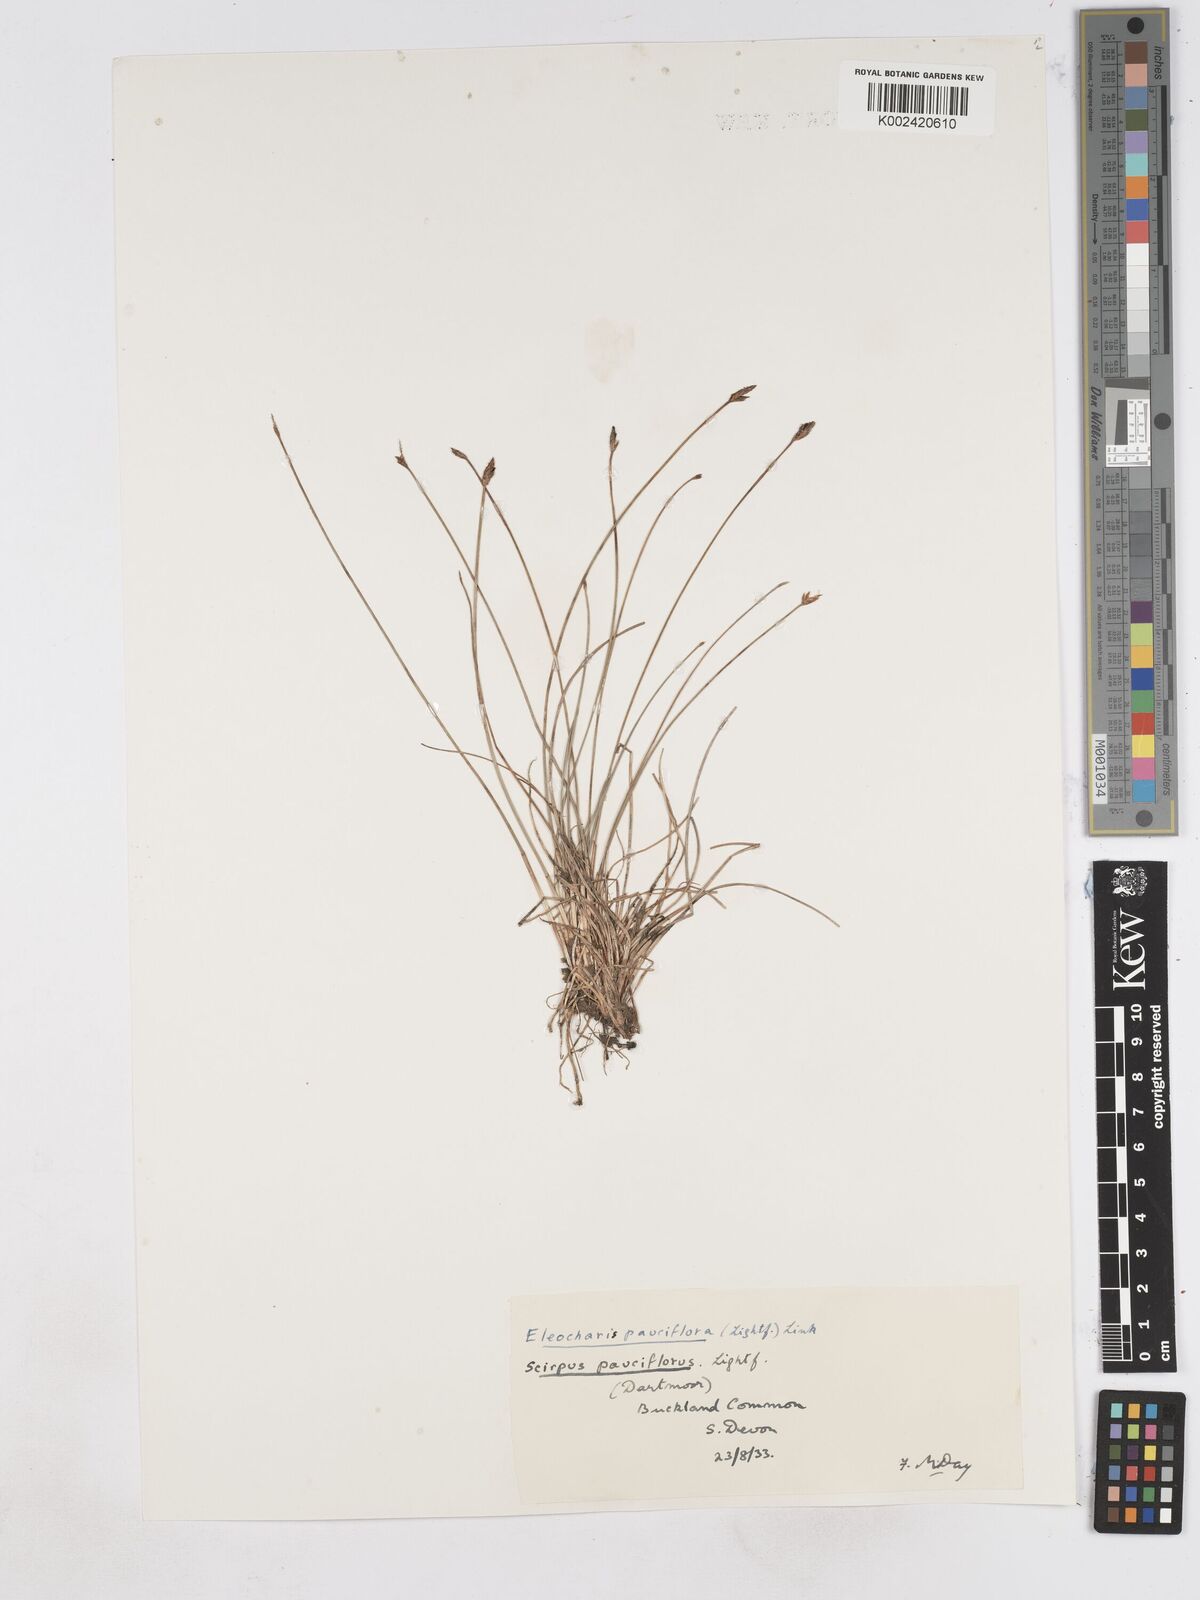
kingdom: Plantae
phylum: Tracheophyta
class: Liliopsida
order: Poales
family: Cyperaceae
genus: Eleocharis
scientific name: Eleocharis quinqueflora
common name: Few-flowered spike-rush
